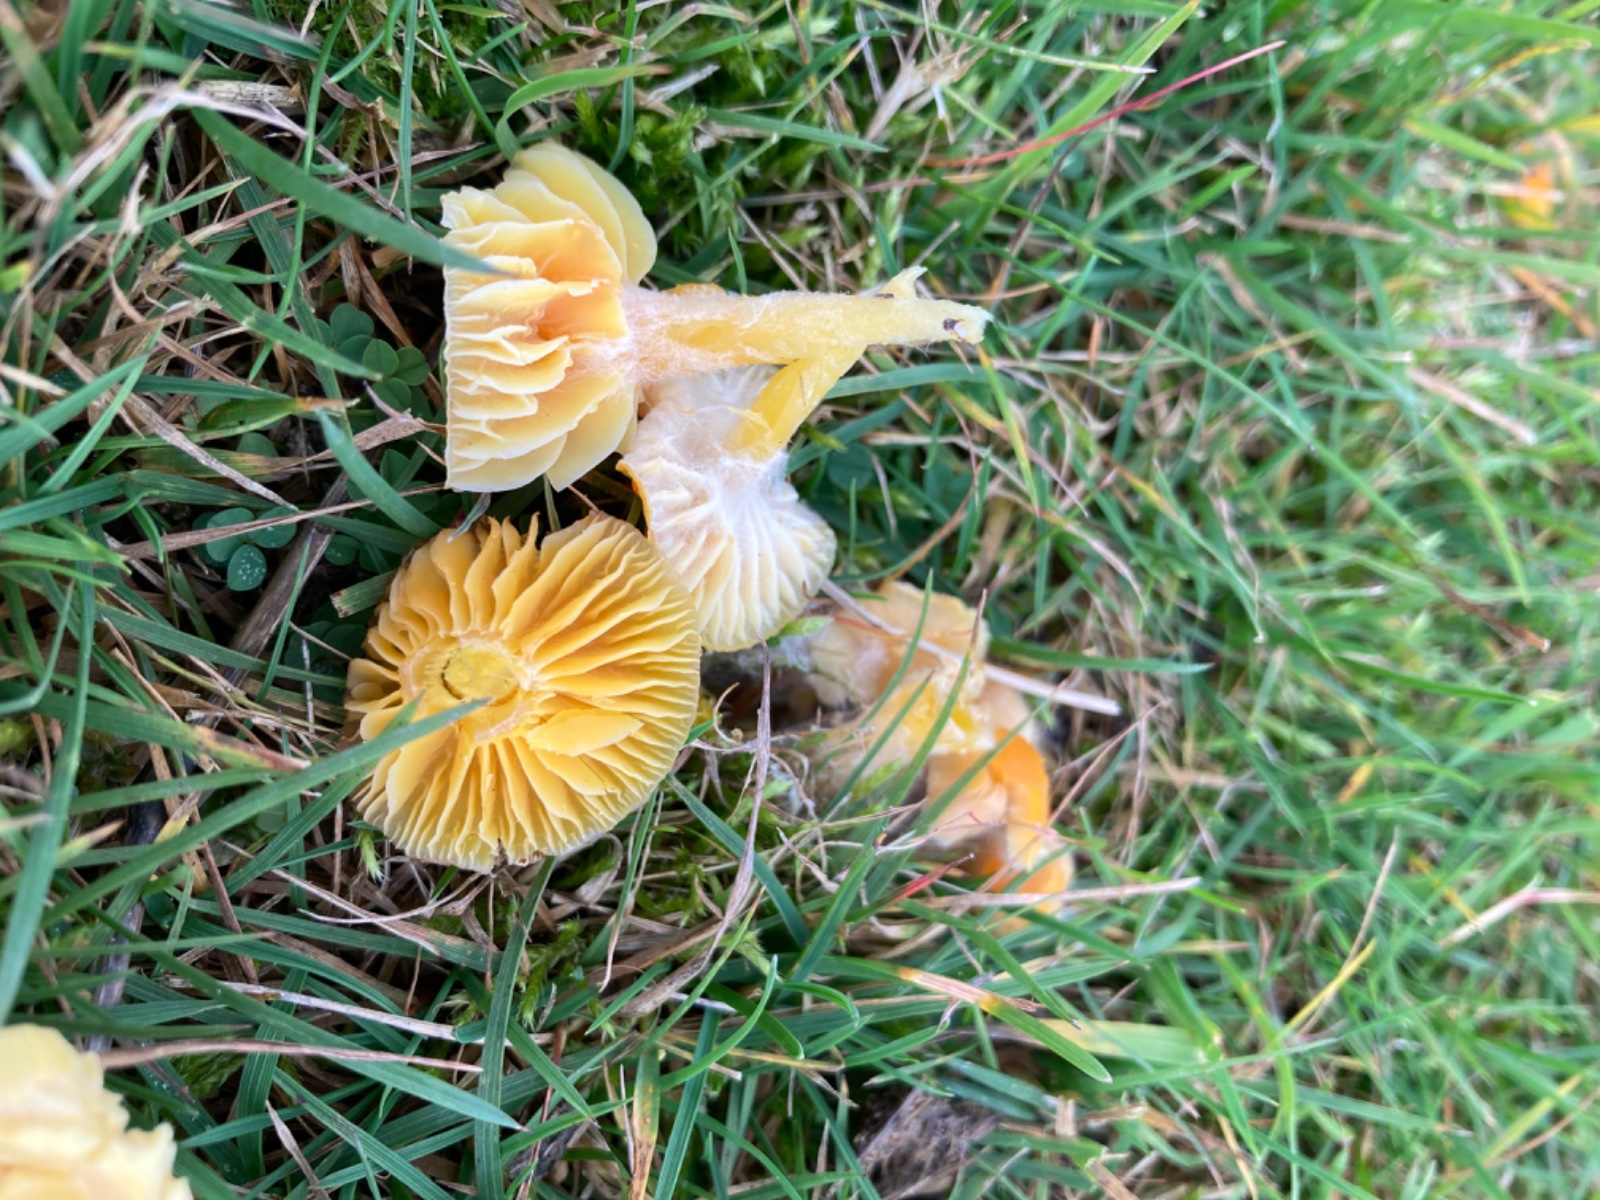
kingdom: Fungi
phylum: Basidiomycota
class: Agaricomycetes
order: Agaricales
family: Hygrophoraceae
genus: Hygrocybe
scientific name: Hygrocybe ceracea
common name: voksgul vokshat
